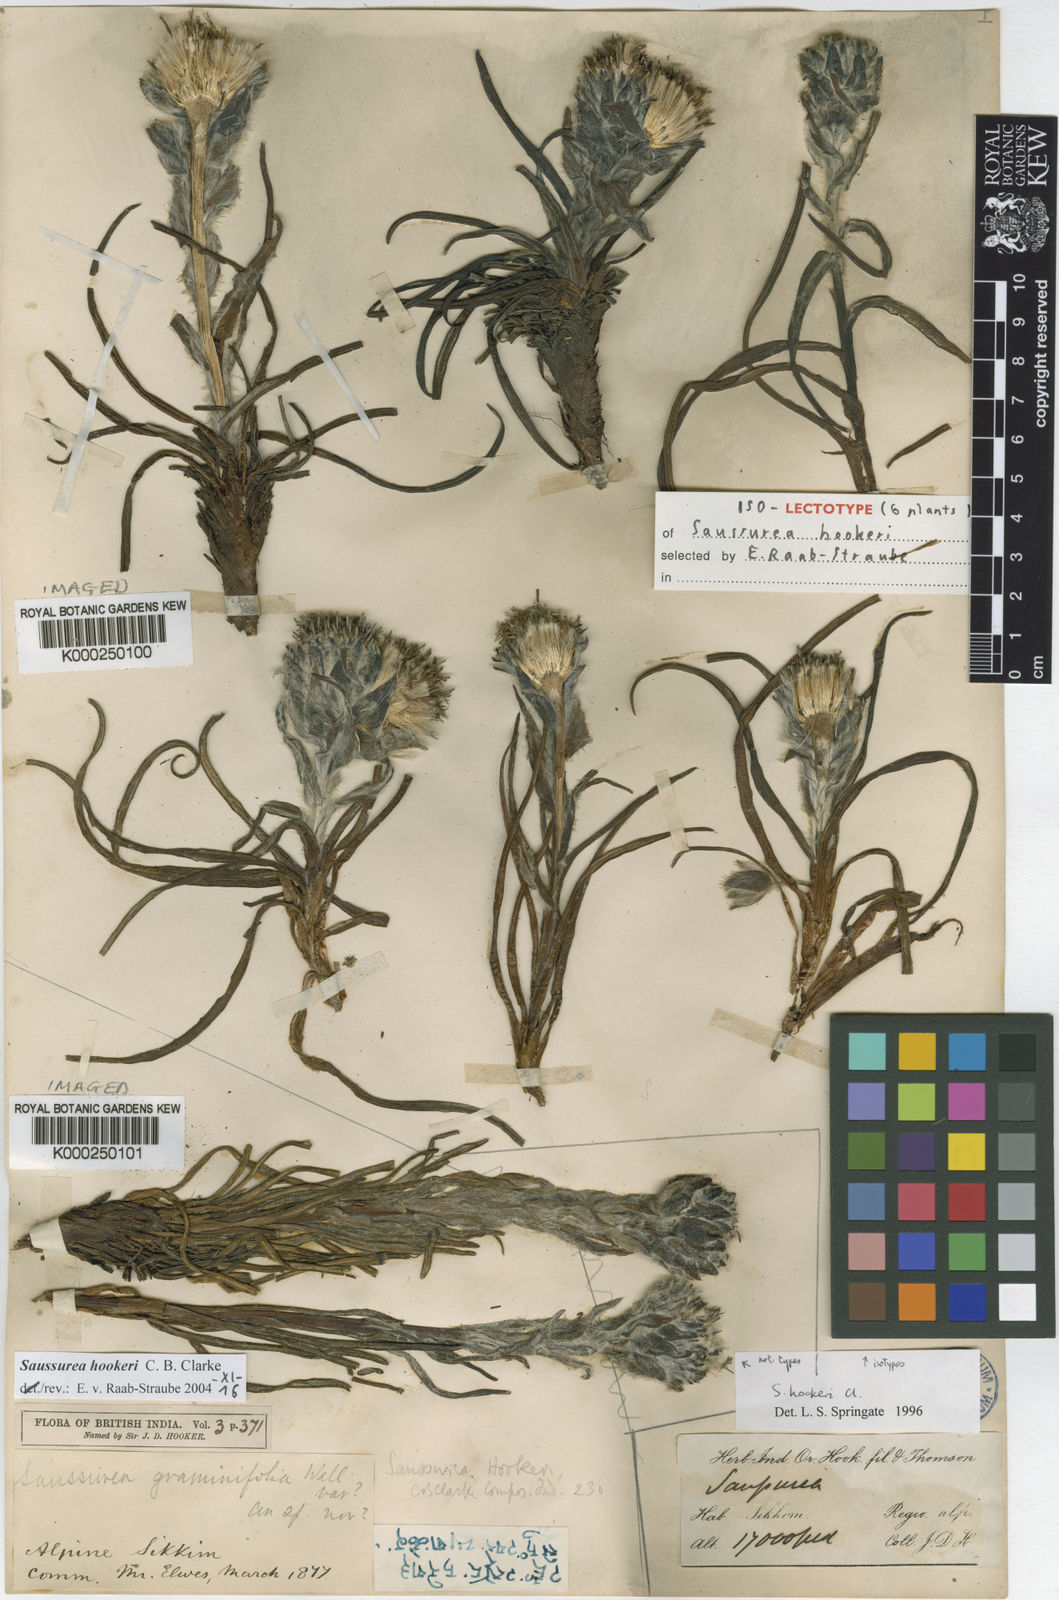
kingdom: Plantae
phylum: Tracheophyta
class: Magnoliopsida
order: Asterales
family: Asteraceae
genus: Saussurea
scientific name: Saussurea hookeri
